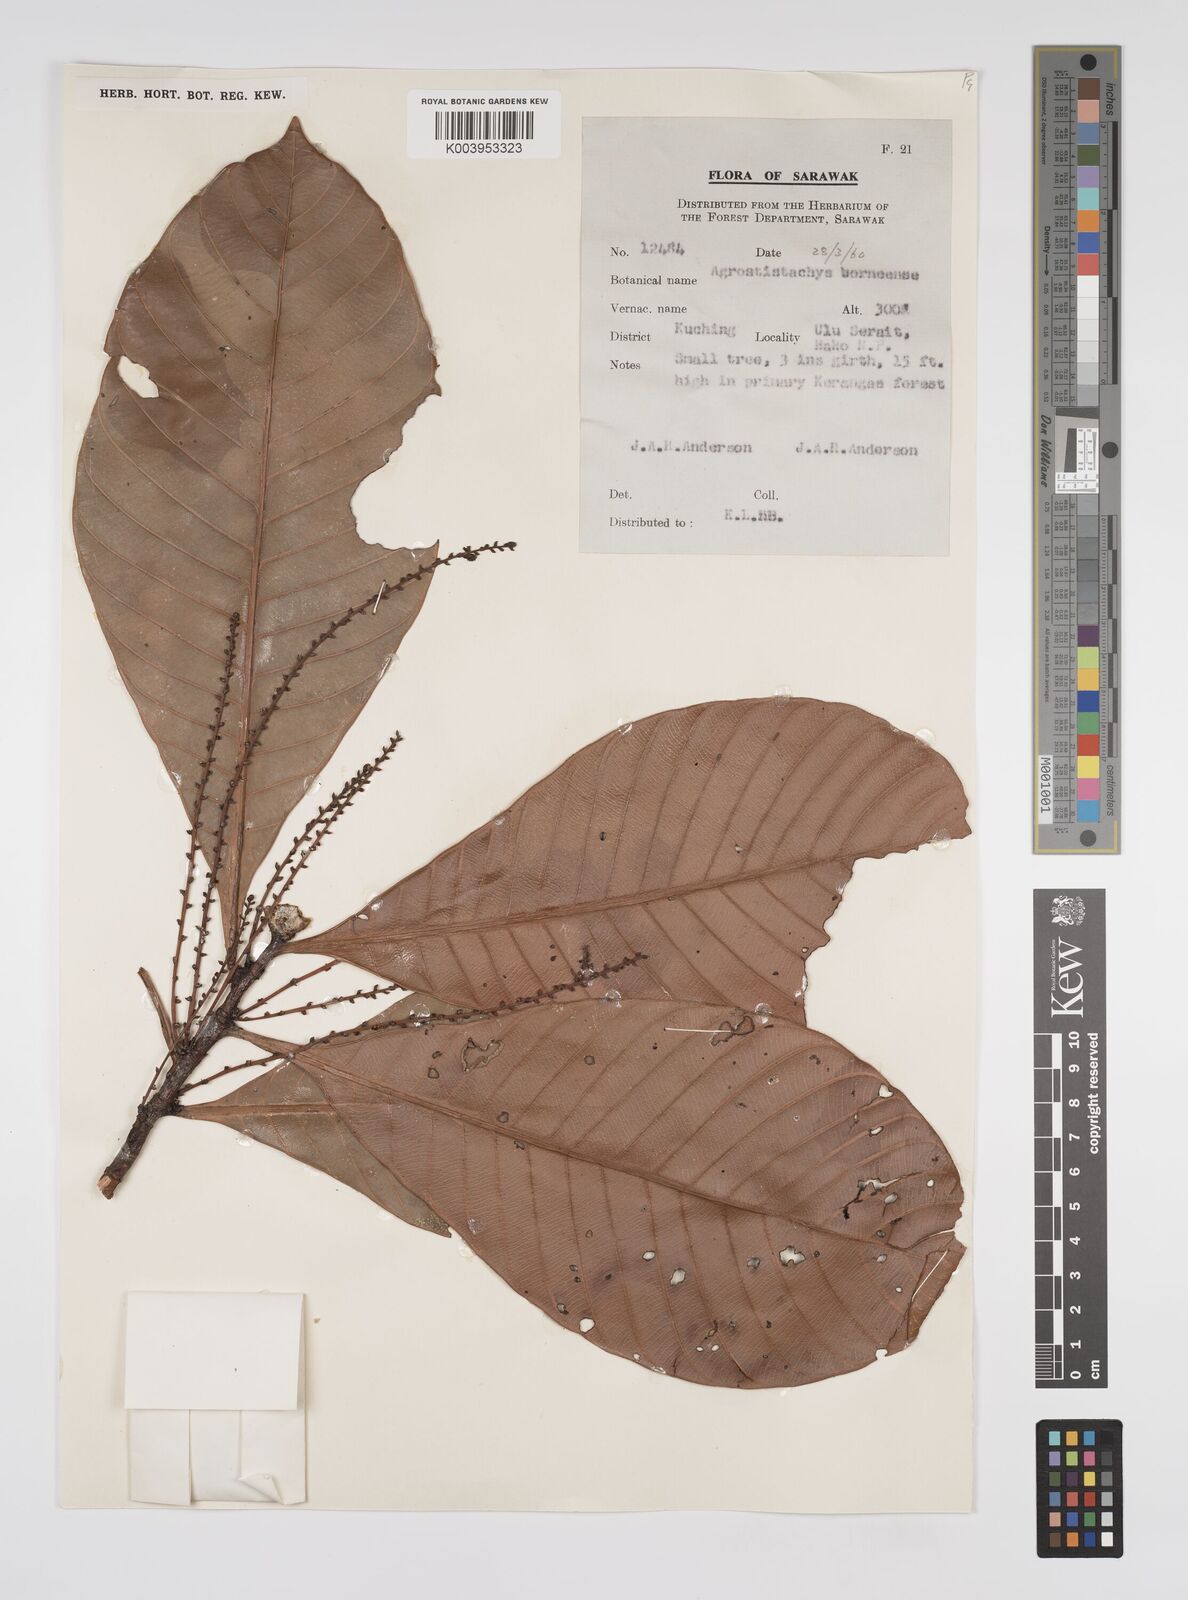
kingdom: Plantae
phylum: Tracheophyta
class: Magnoliopsida
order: Malpighiales
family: Euphorbiaceae
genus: Agrostistachys
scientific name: Agrostistachys
